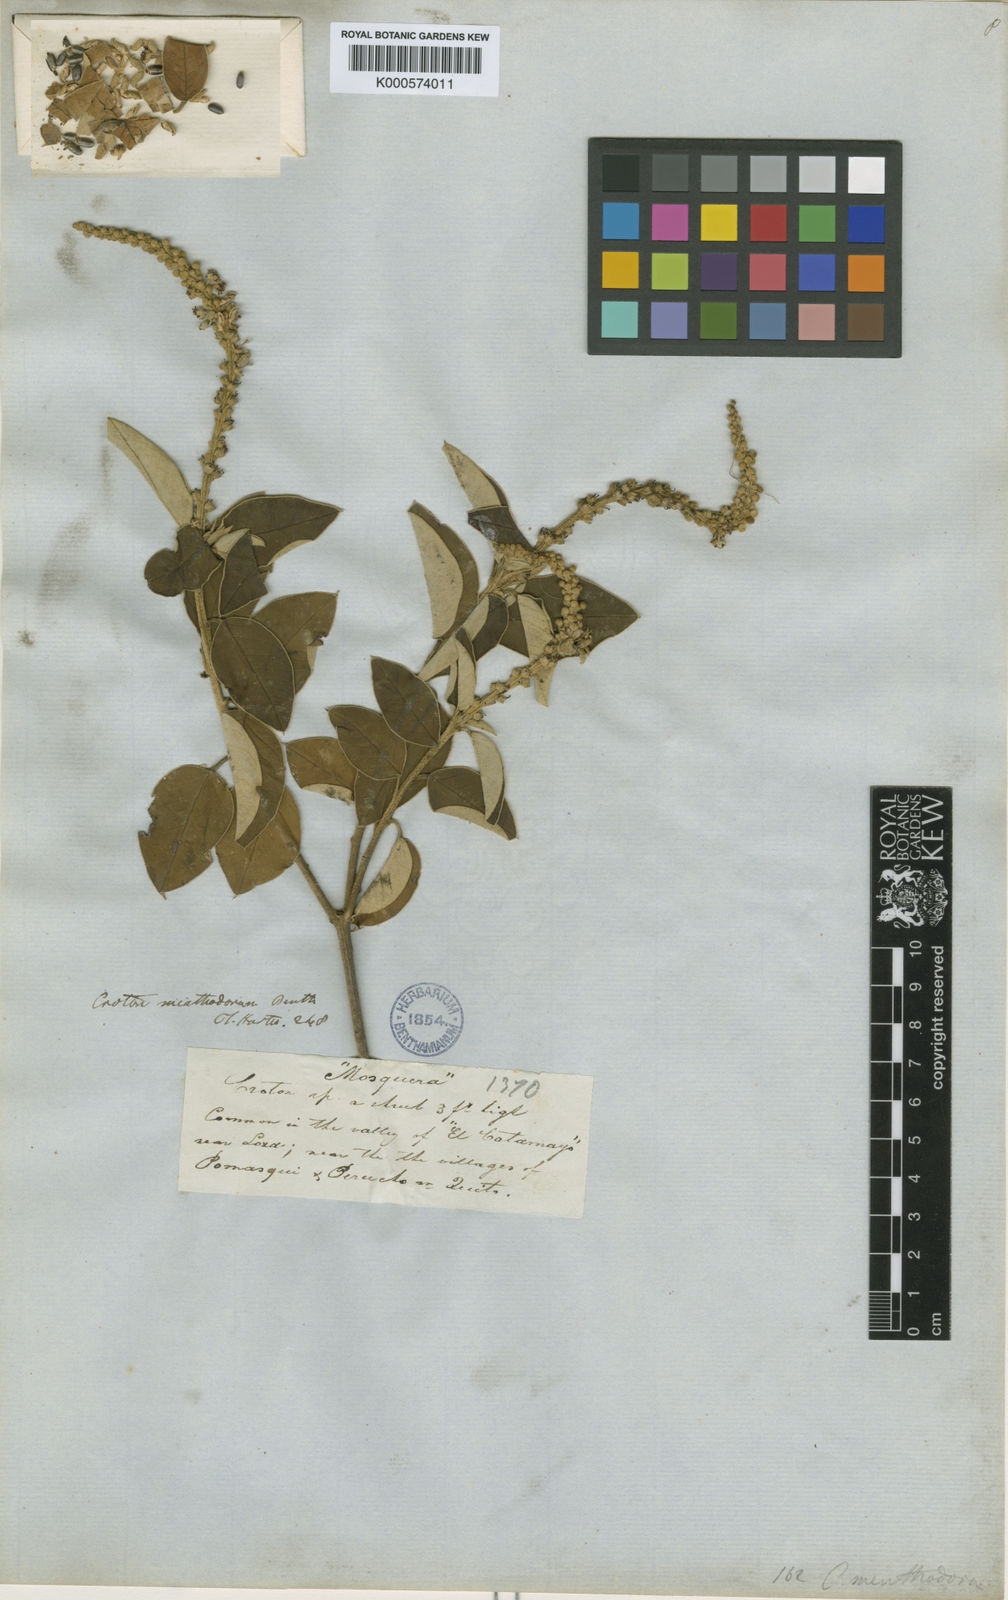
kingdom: Plantae
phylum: Tracheophyta
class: Magnoliopsida
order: Malpighiales
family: Euphorbiaceae
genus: Croton
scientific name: Croton menthodorus
